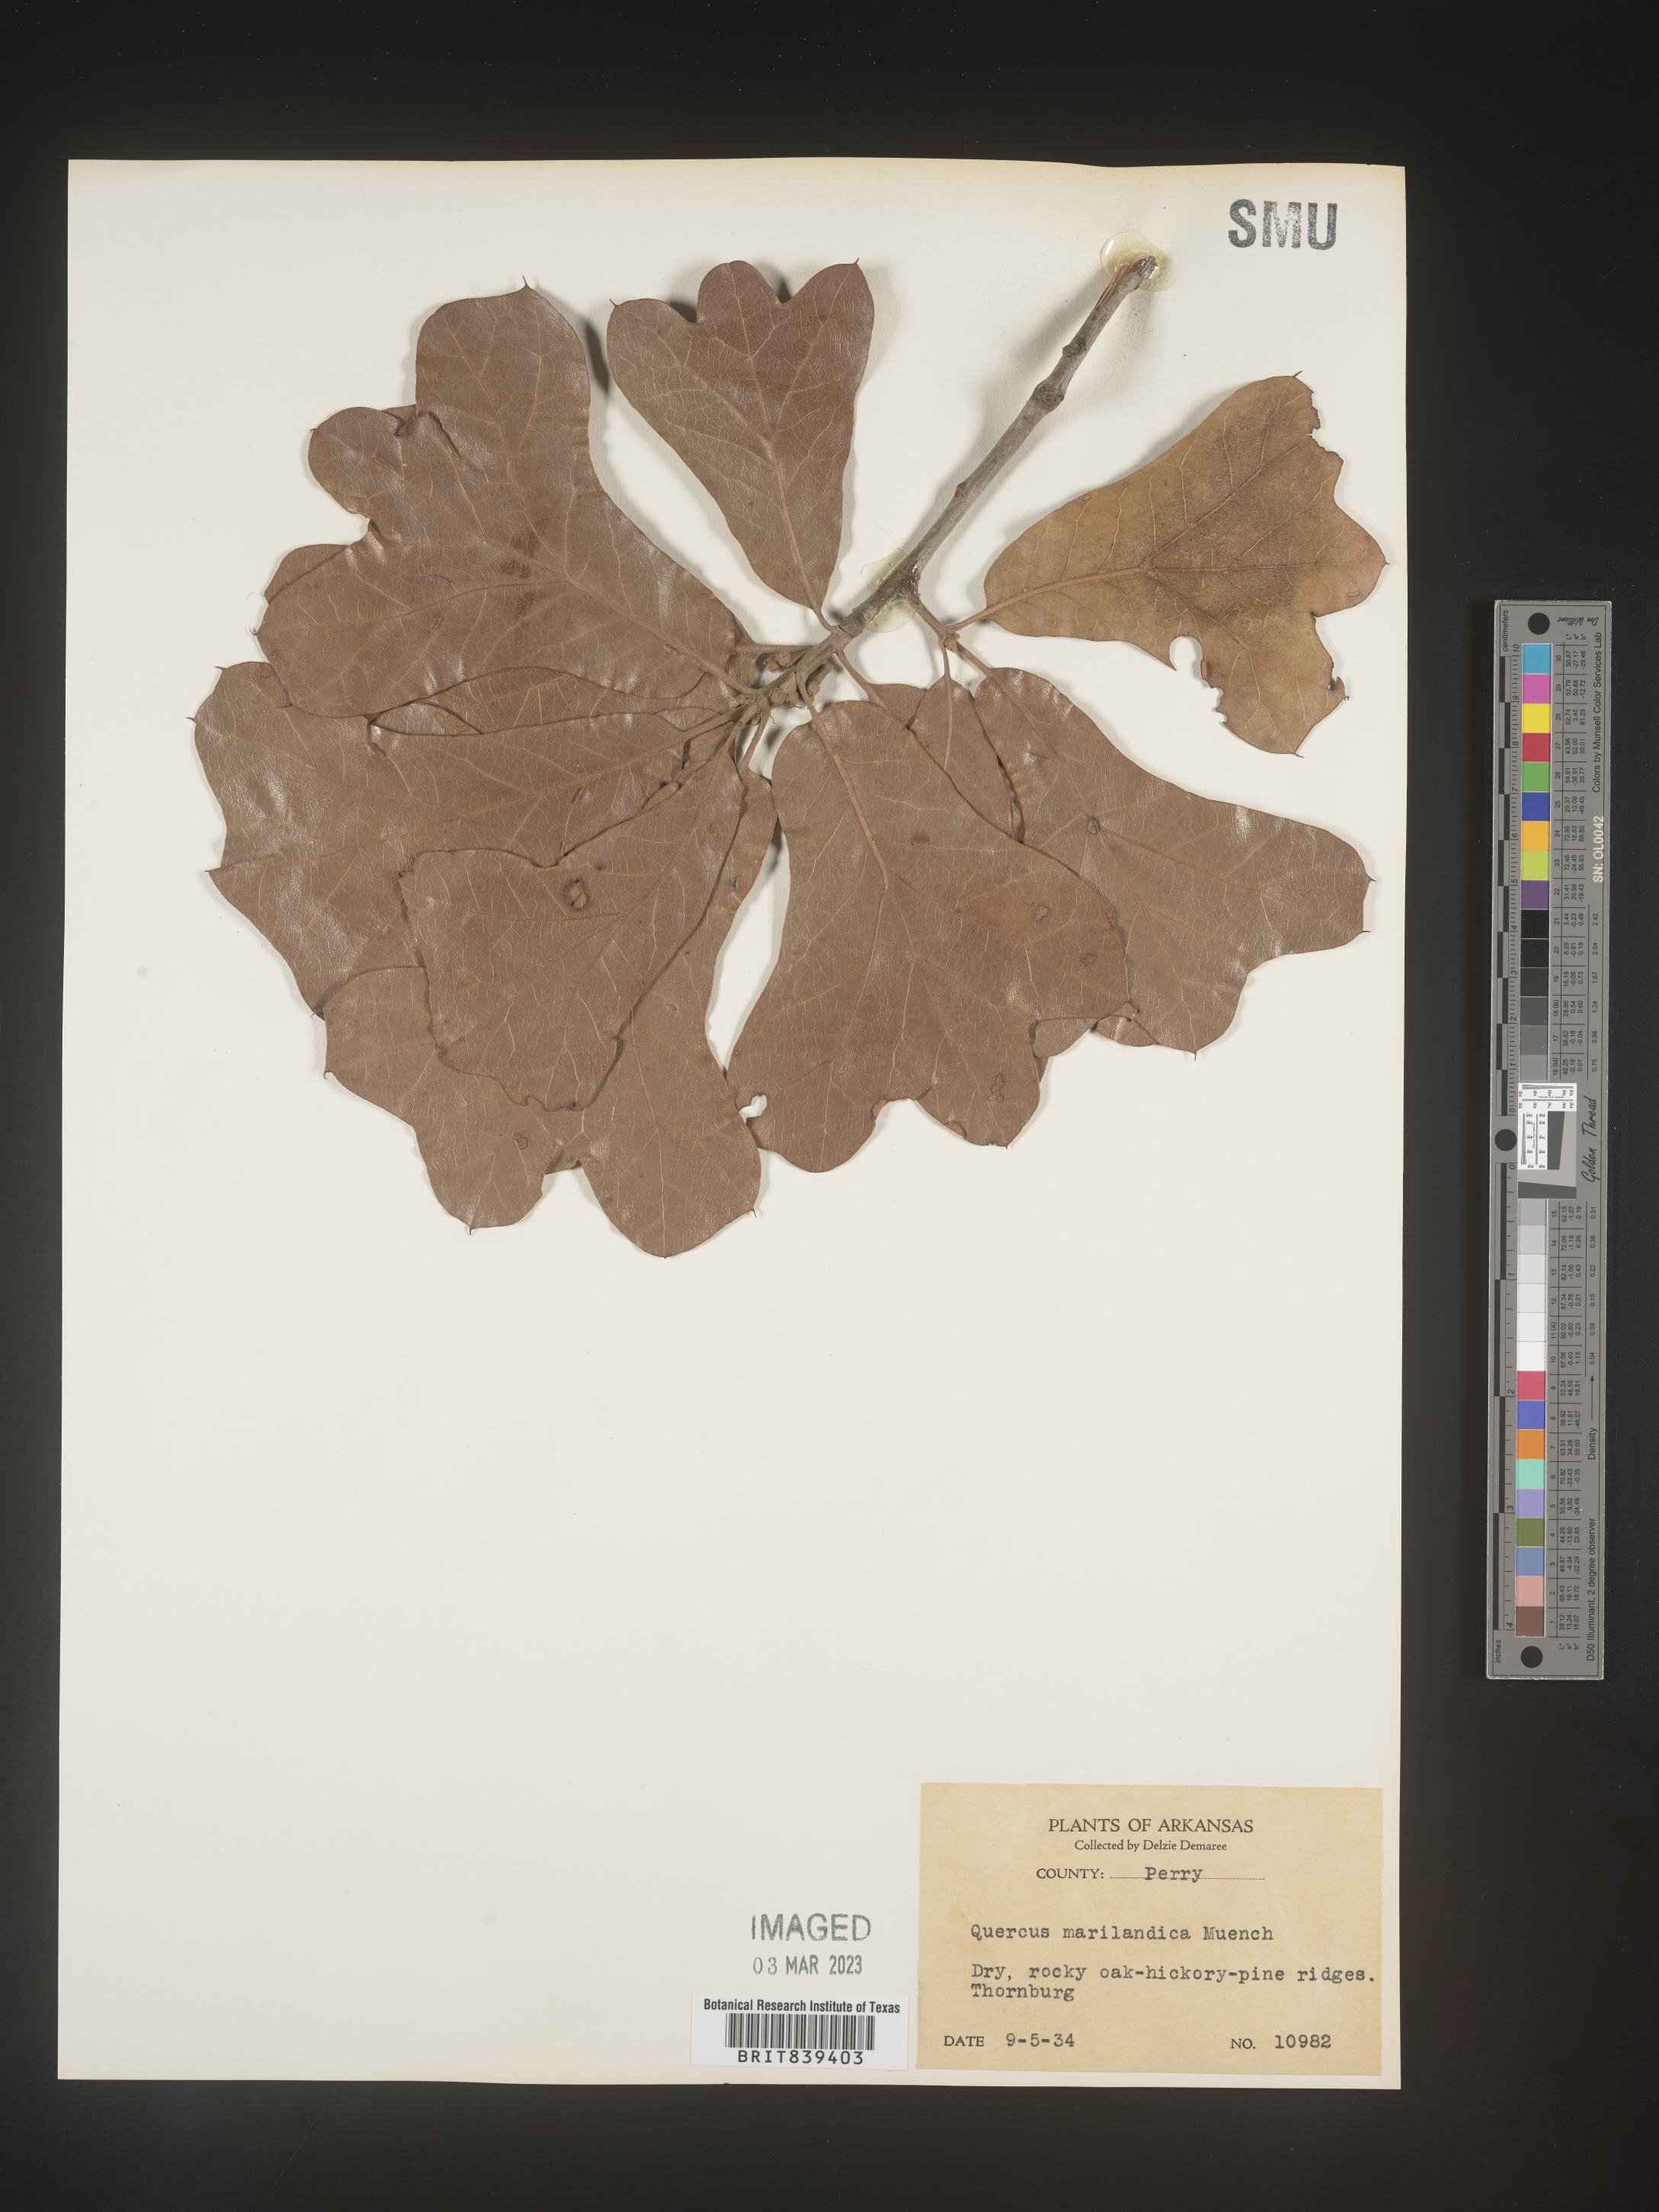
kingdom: Plantae
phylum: Tracheophyta
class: Magnoliopsida
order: Fagales
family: Fagaceae
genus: Quercus
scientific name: Quercus marilandica
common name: Blackjack oak
